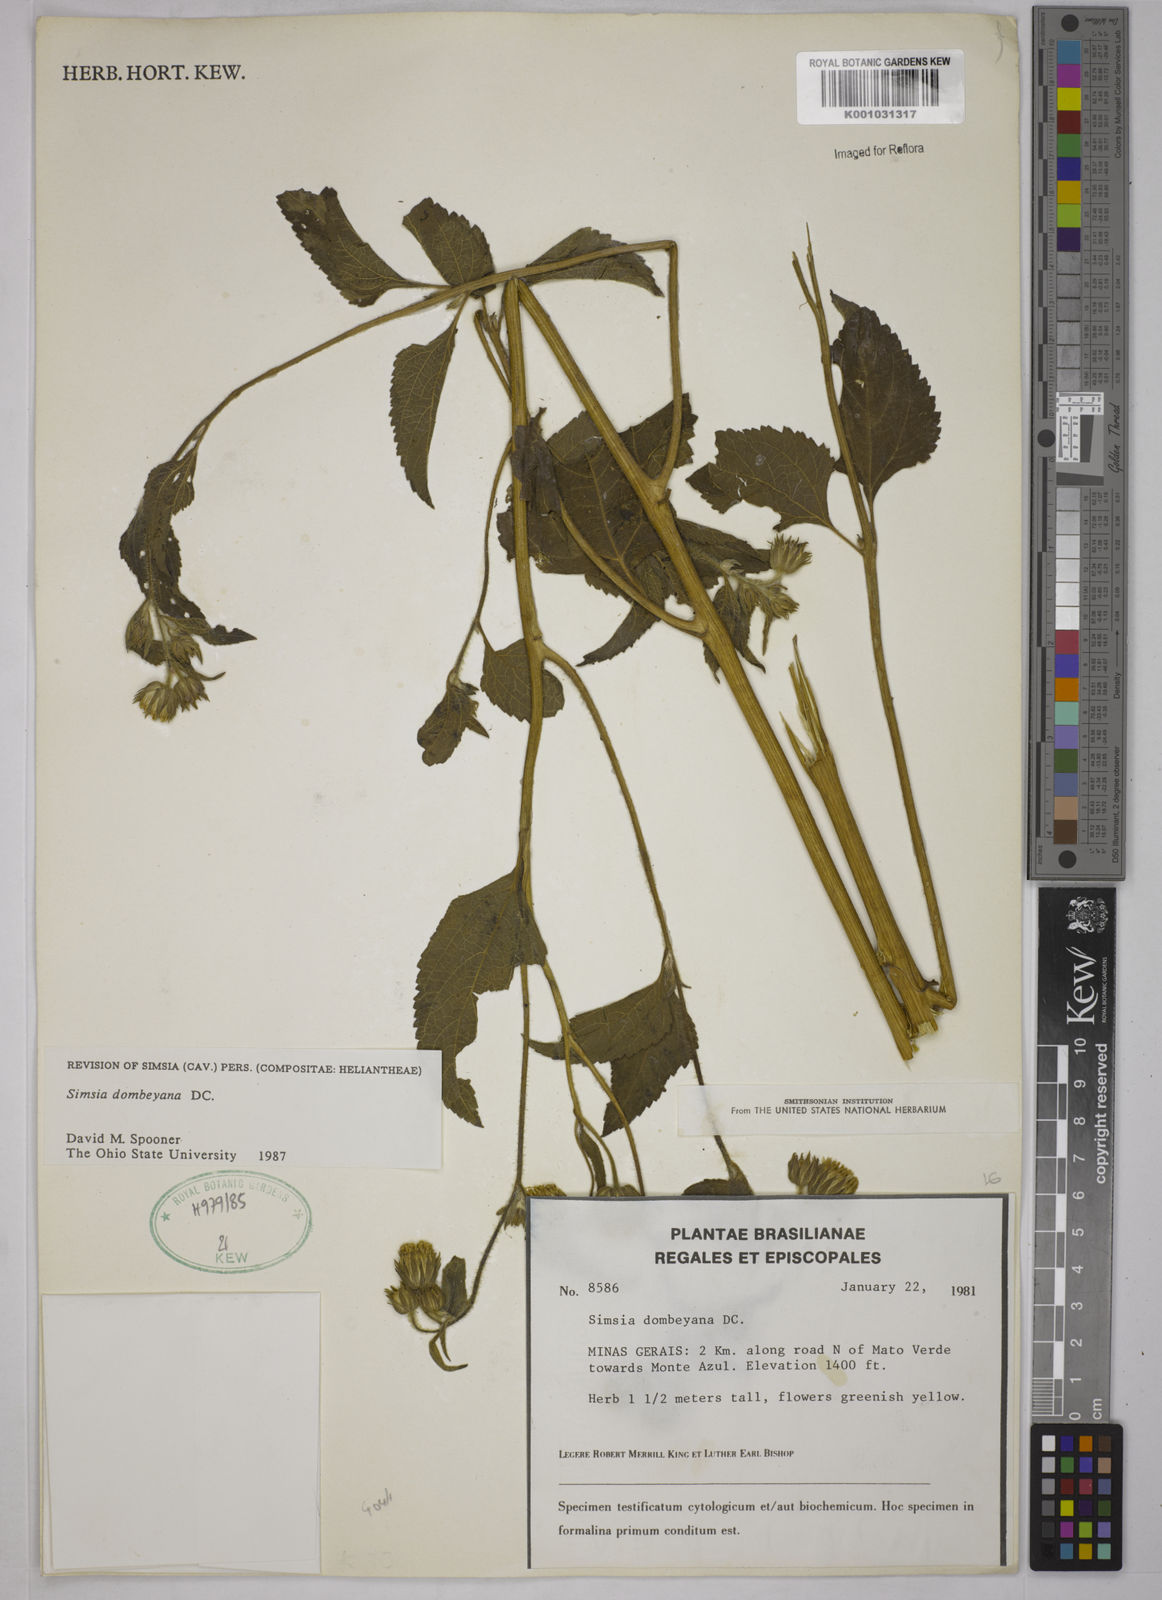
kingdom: Plantae
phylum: Tracheophyta
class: Magnoliopsida
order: Asterales
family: Asteraceae
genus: Simsia
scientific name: Simsia dombeyana
